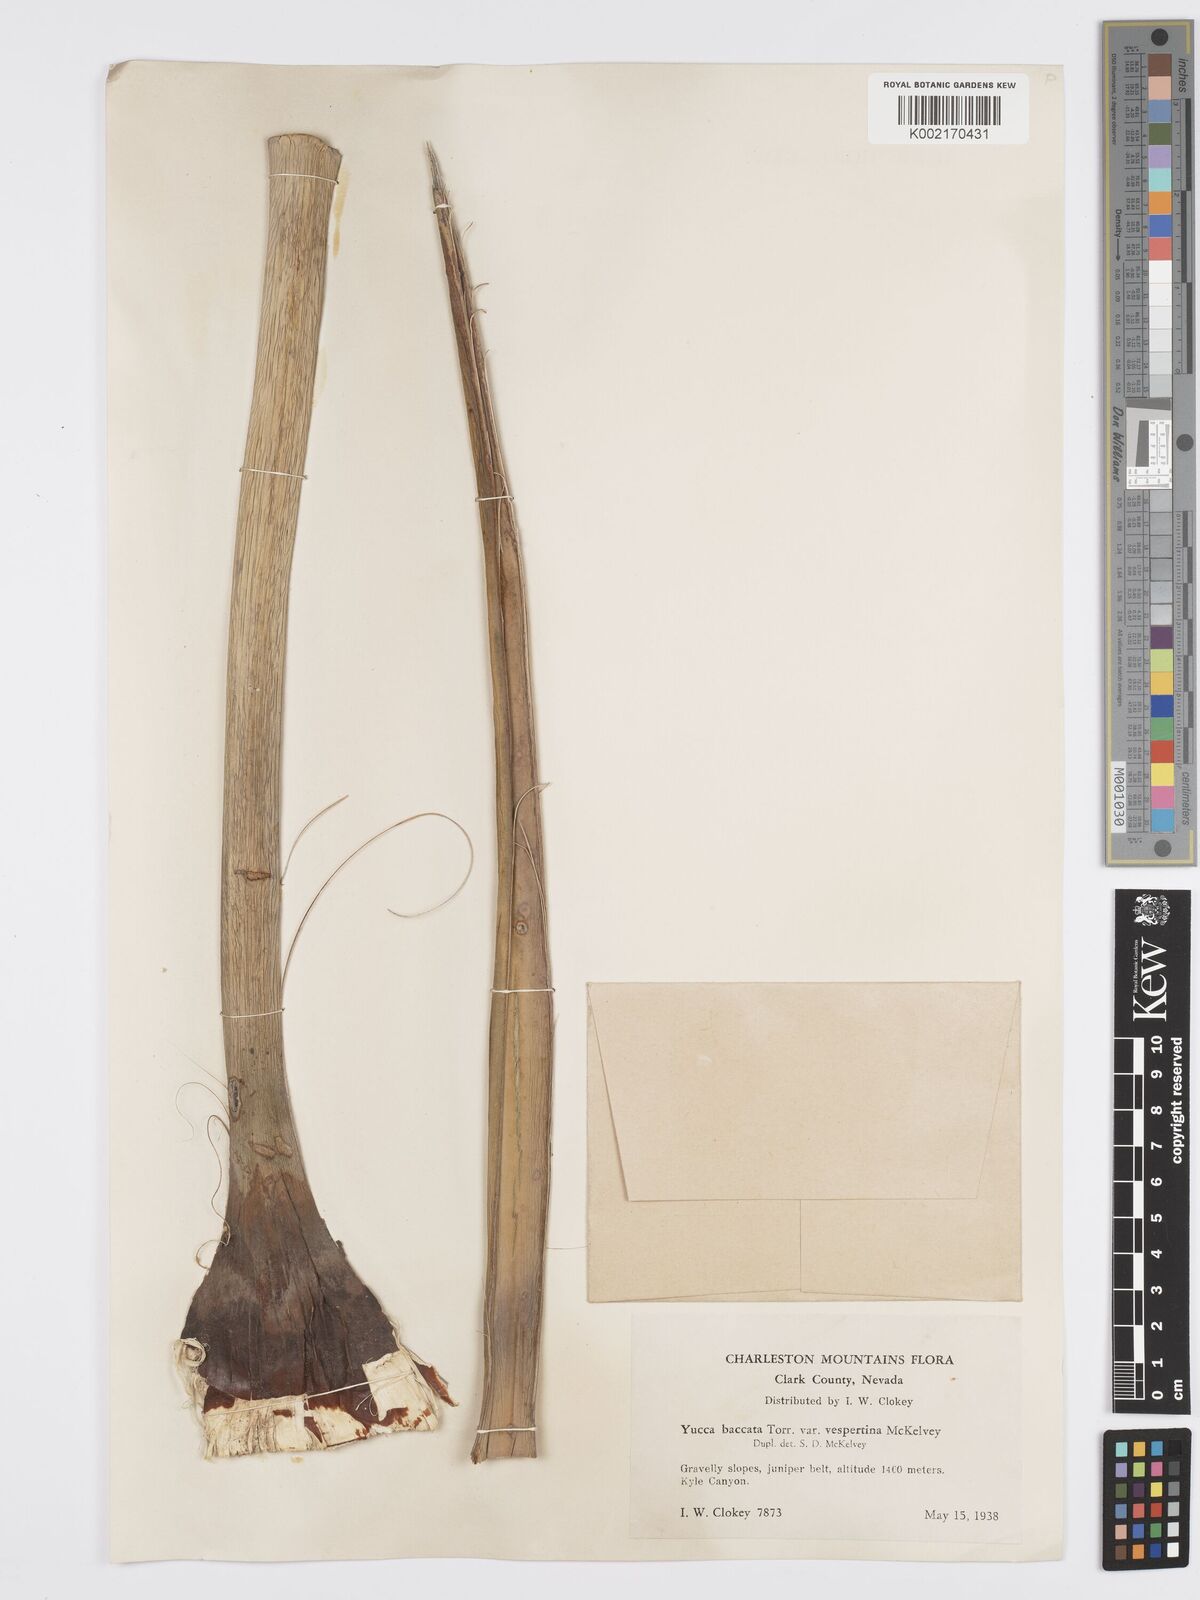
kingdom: Plantae
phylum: Tracheophyta
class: Liliopsida
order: Asparagales
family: Asparagaceae
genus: Yucca
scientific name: Yucca baccata
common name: Banana yucca
